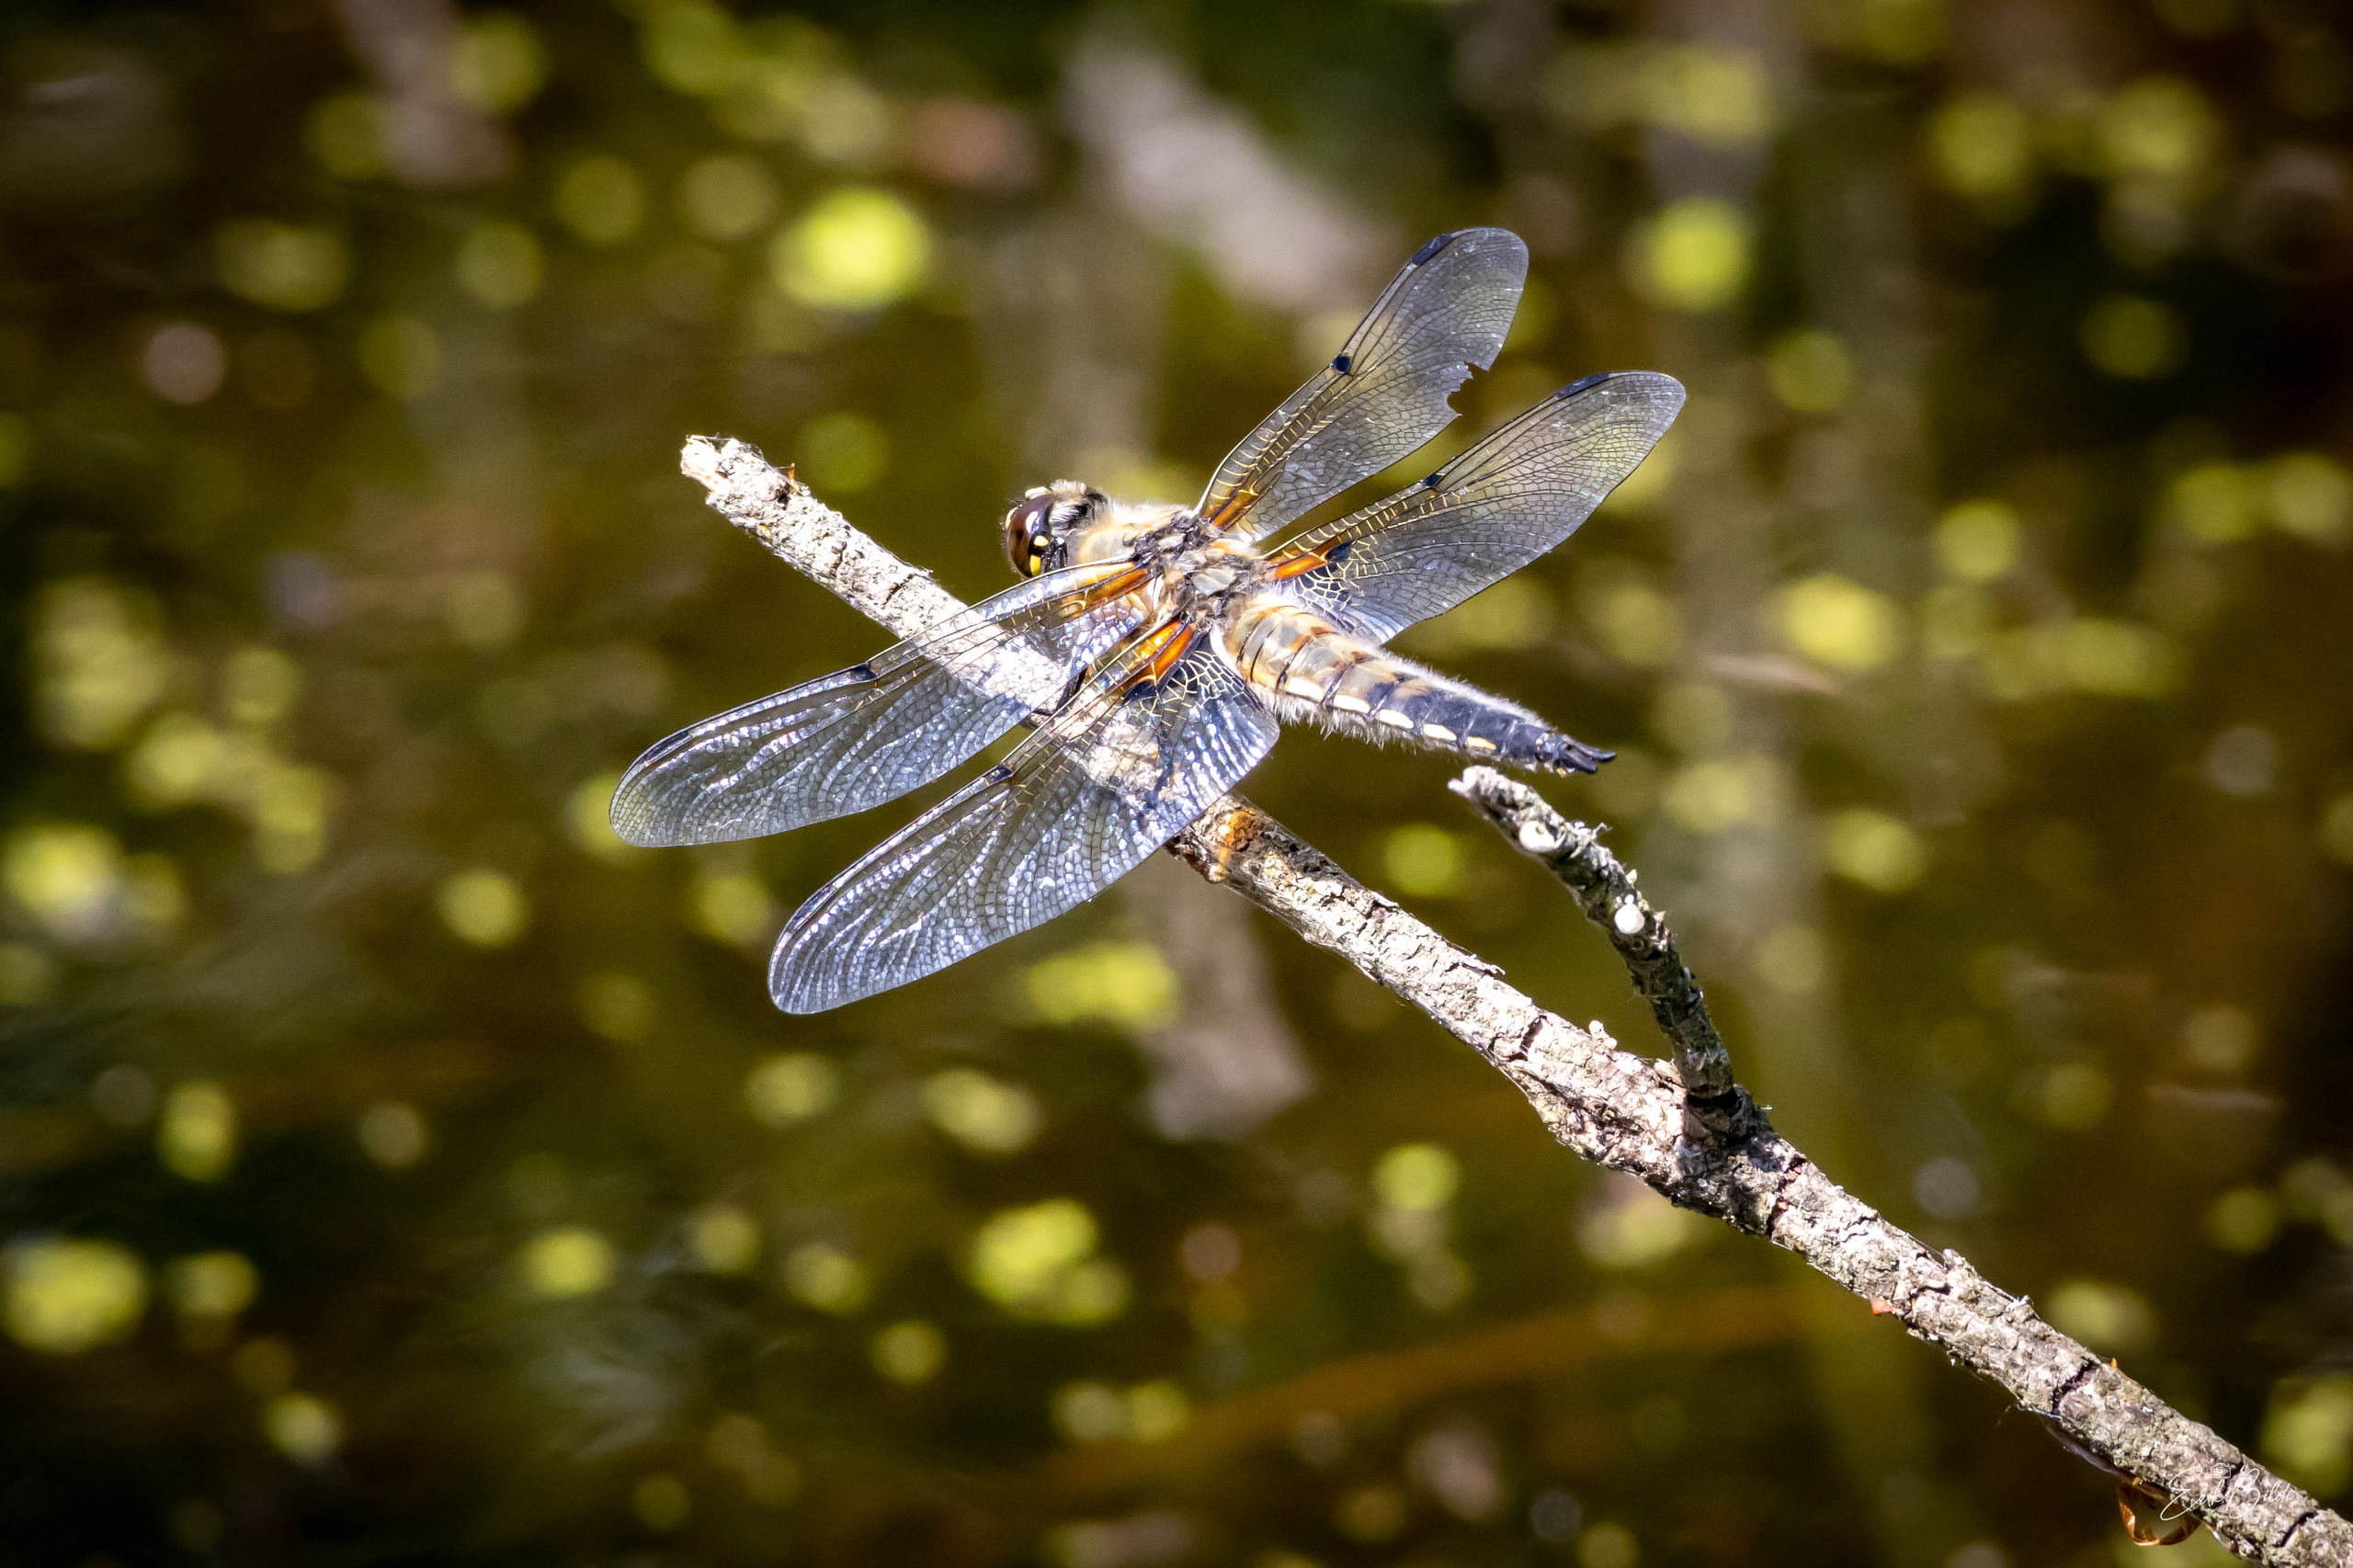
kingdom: Animalia
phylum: Arthropoda
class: Insecta
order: Odonata
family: Libellulidae
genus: Libellula
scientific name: Libellula quadrimaculata
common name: Fireplettet libel
